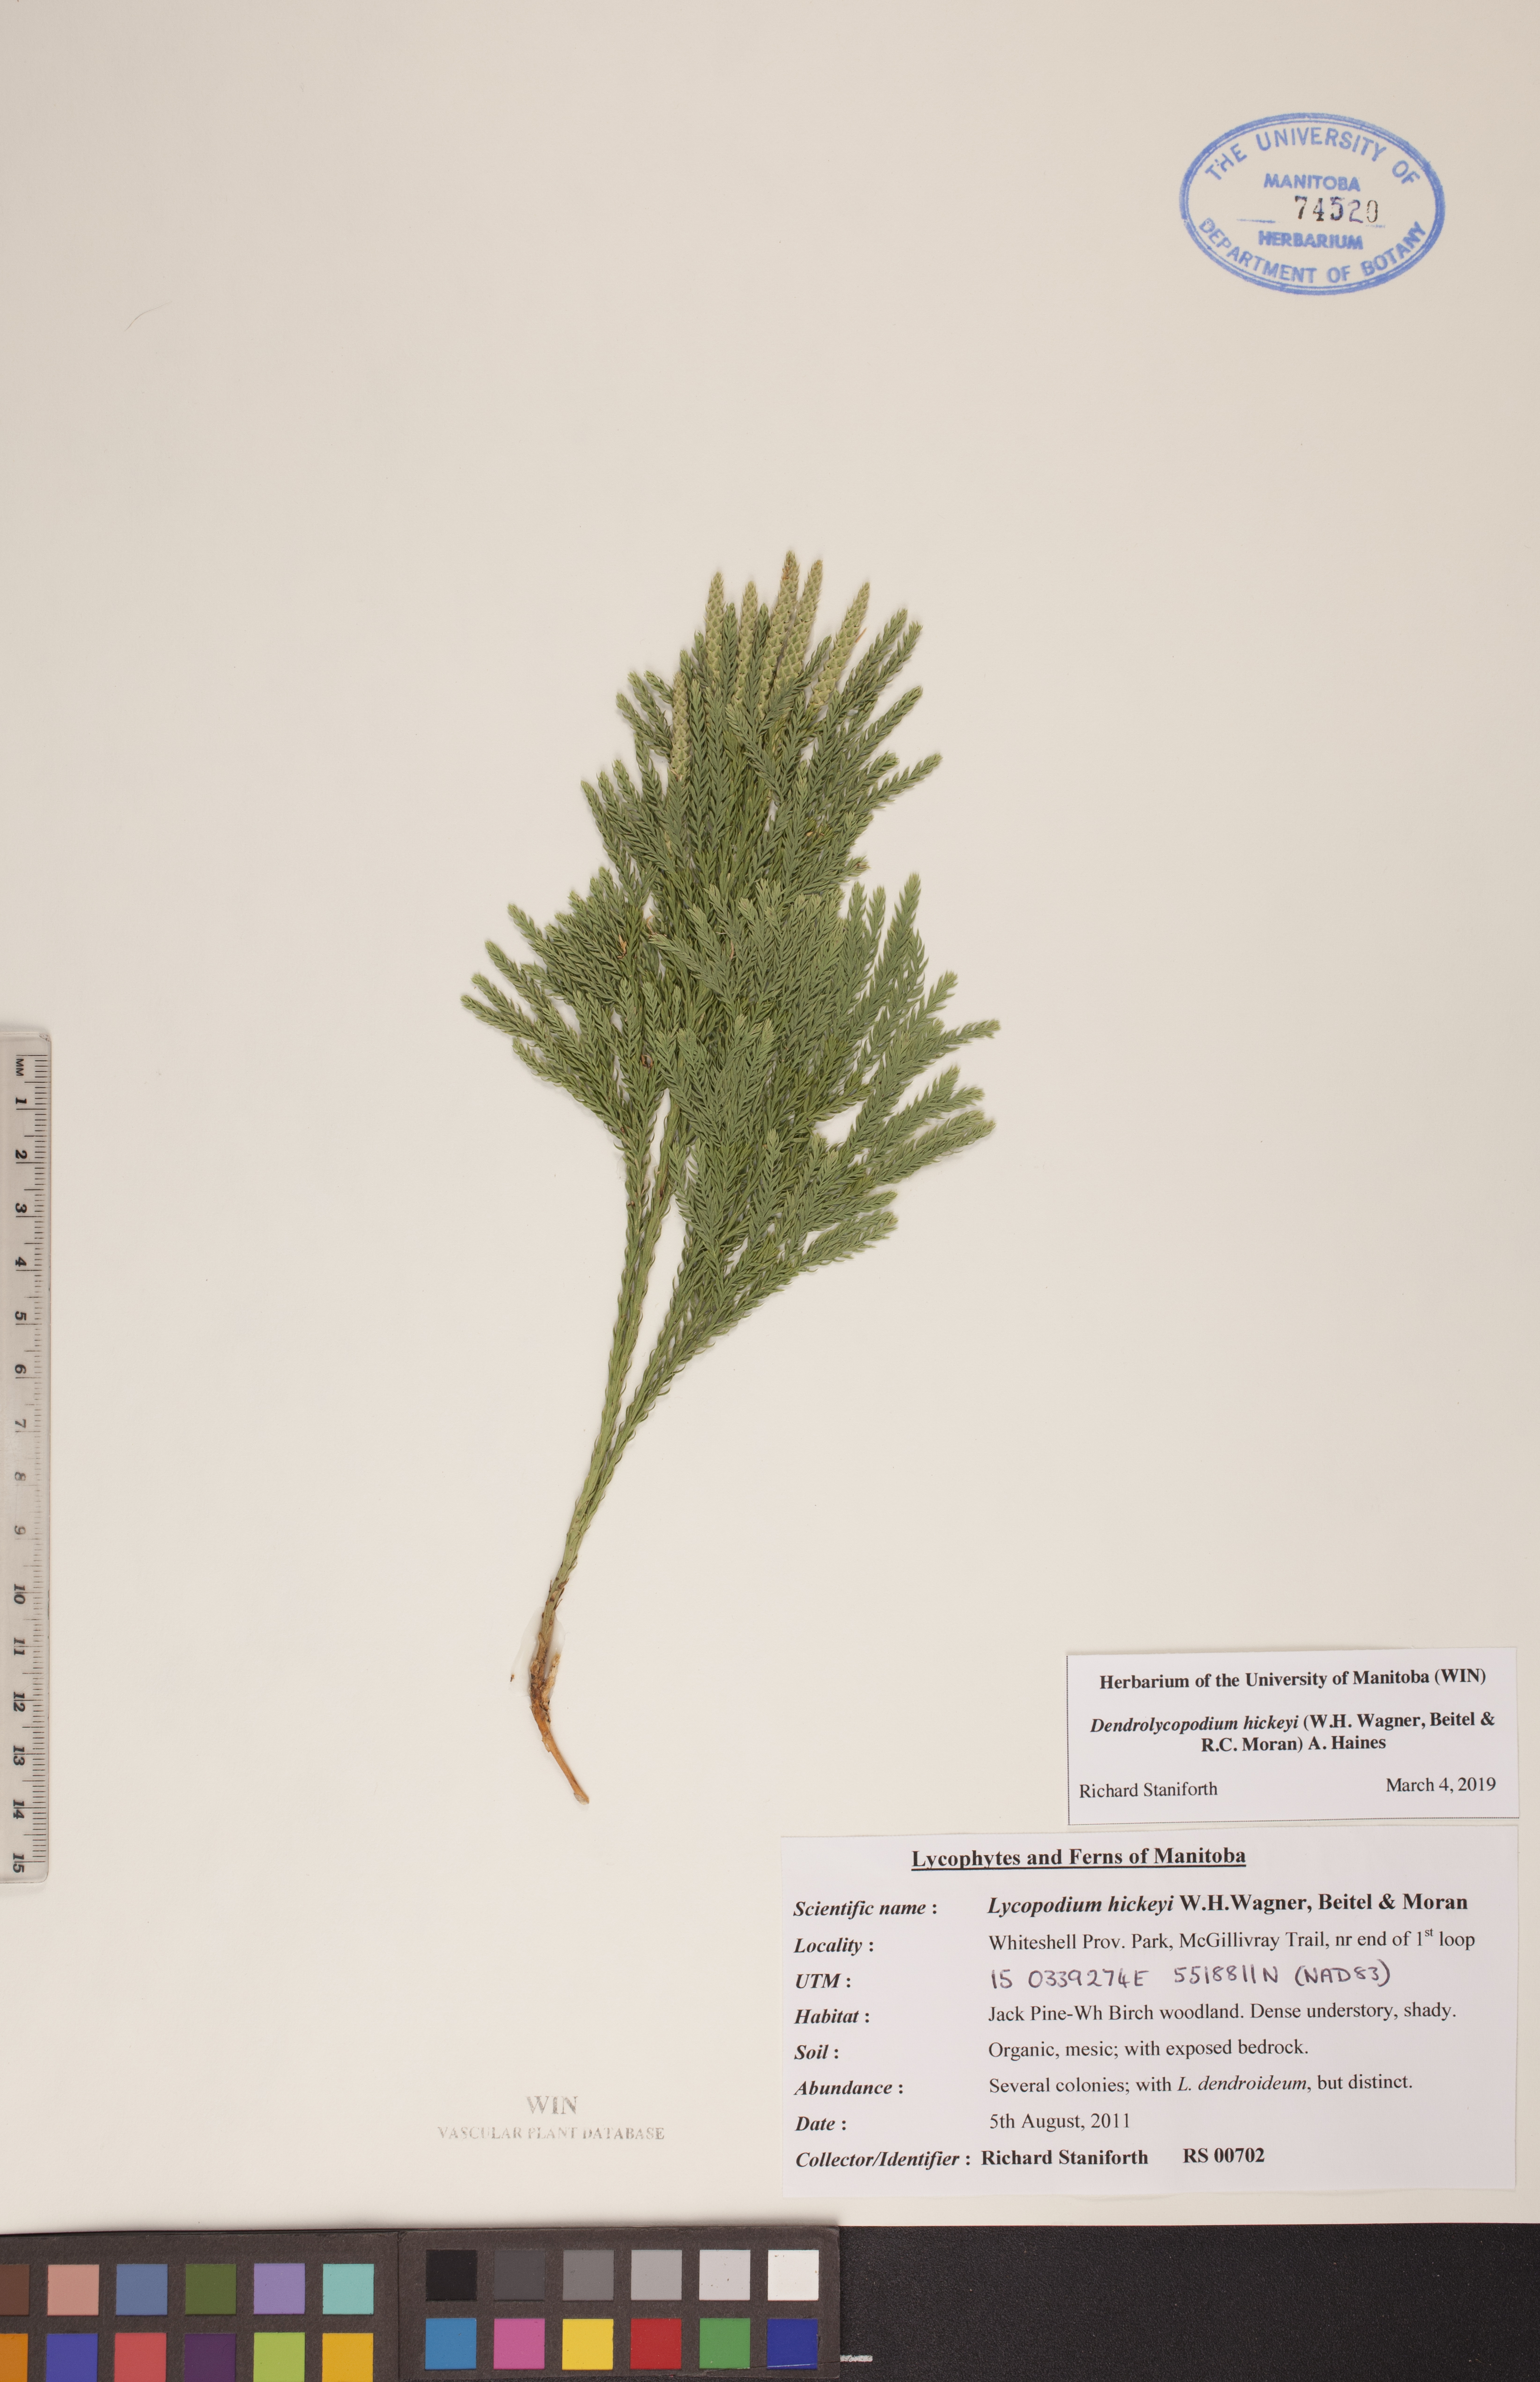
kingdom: Plantae
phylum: Tracheophyta
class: Lycopodiopsida
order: Lycopodiales
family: Lycopodiaceae
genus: Dendrolycopodium
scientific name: Dendrolycopodium hickeyi
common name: Hickey's clubmoss
